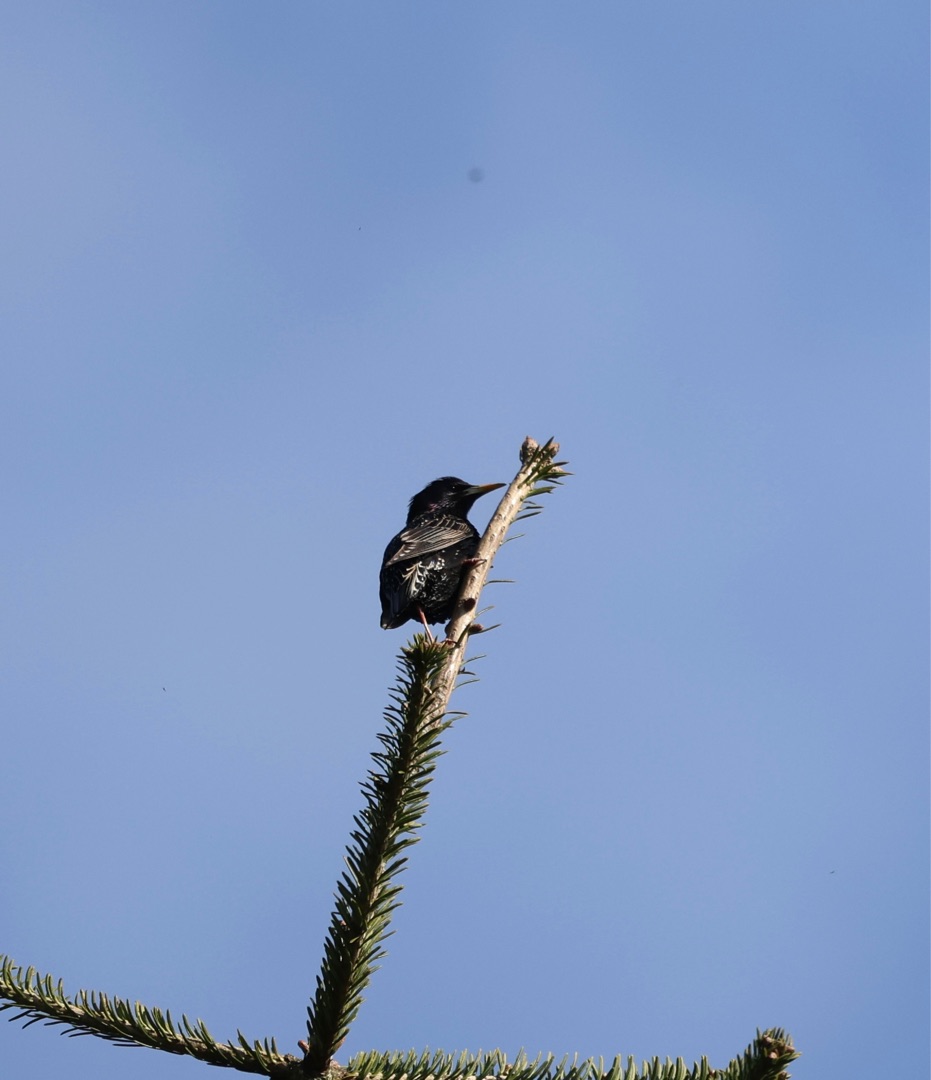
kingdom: Animalia
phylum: Chordata
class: Aves
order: Passeriformes
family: Sturnidae
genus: Sturnus
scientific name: Sturnus vulgaris
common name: Stær
